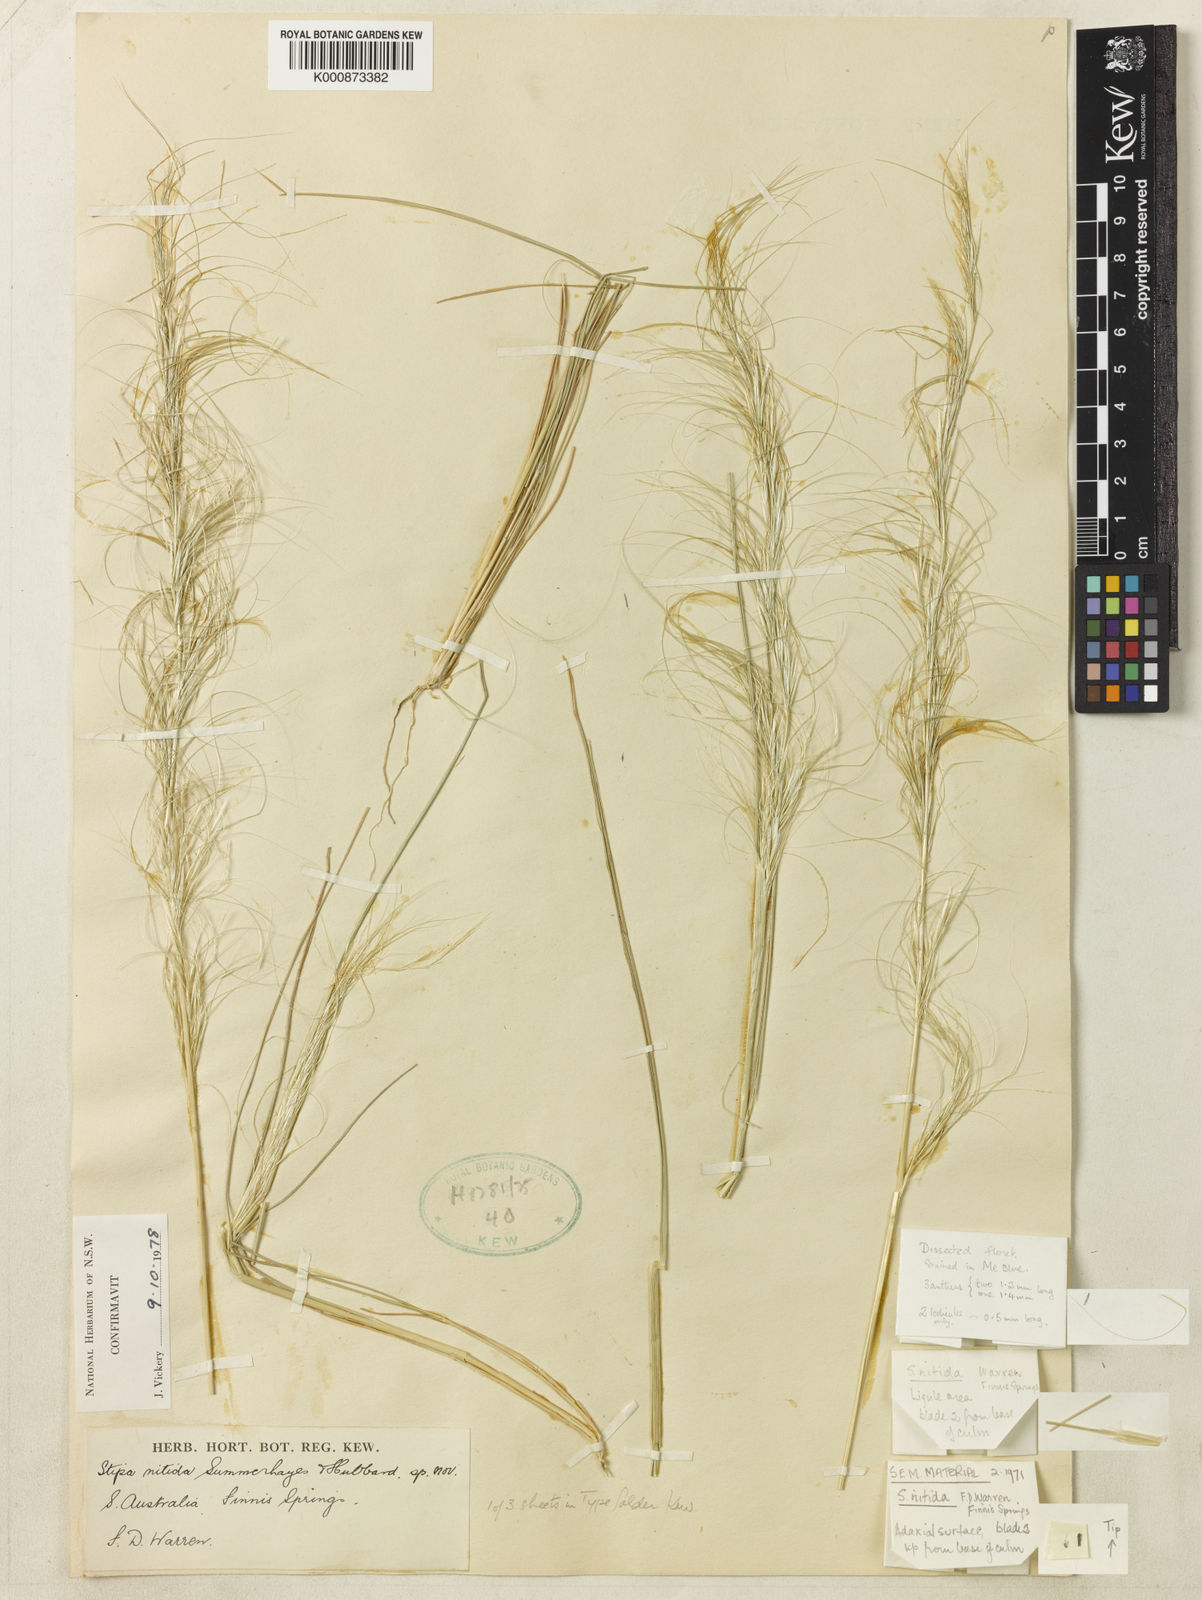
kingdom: Plantae
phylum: Tracheophyta
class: Liliopsida
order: Poales
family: Poaceae
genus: Austrostipa
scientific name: Austrostipa nitida
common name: Balcarra grass
